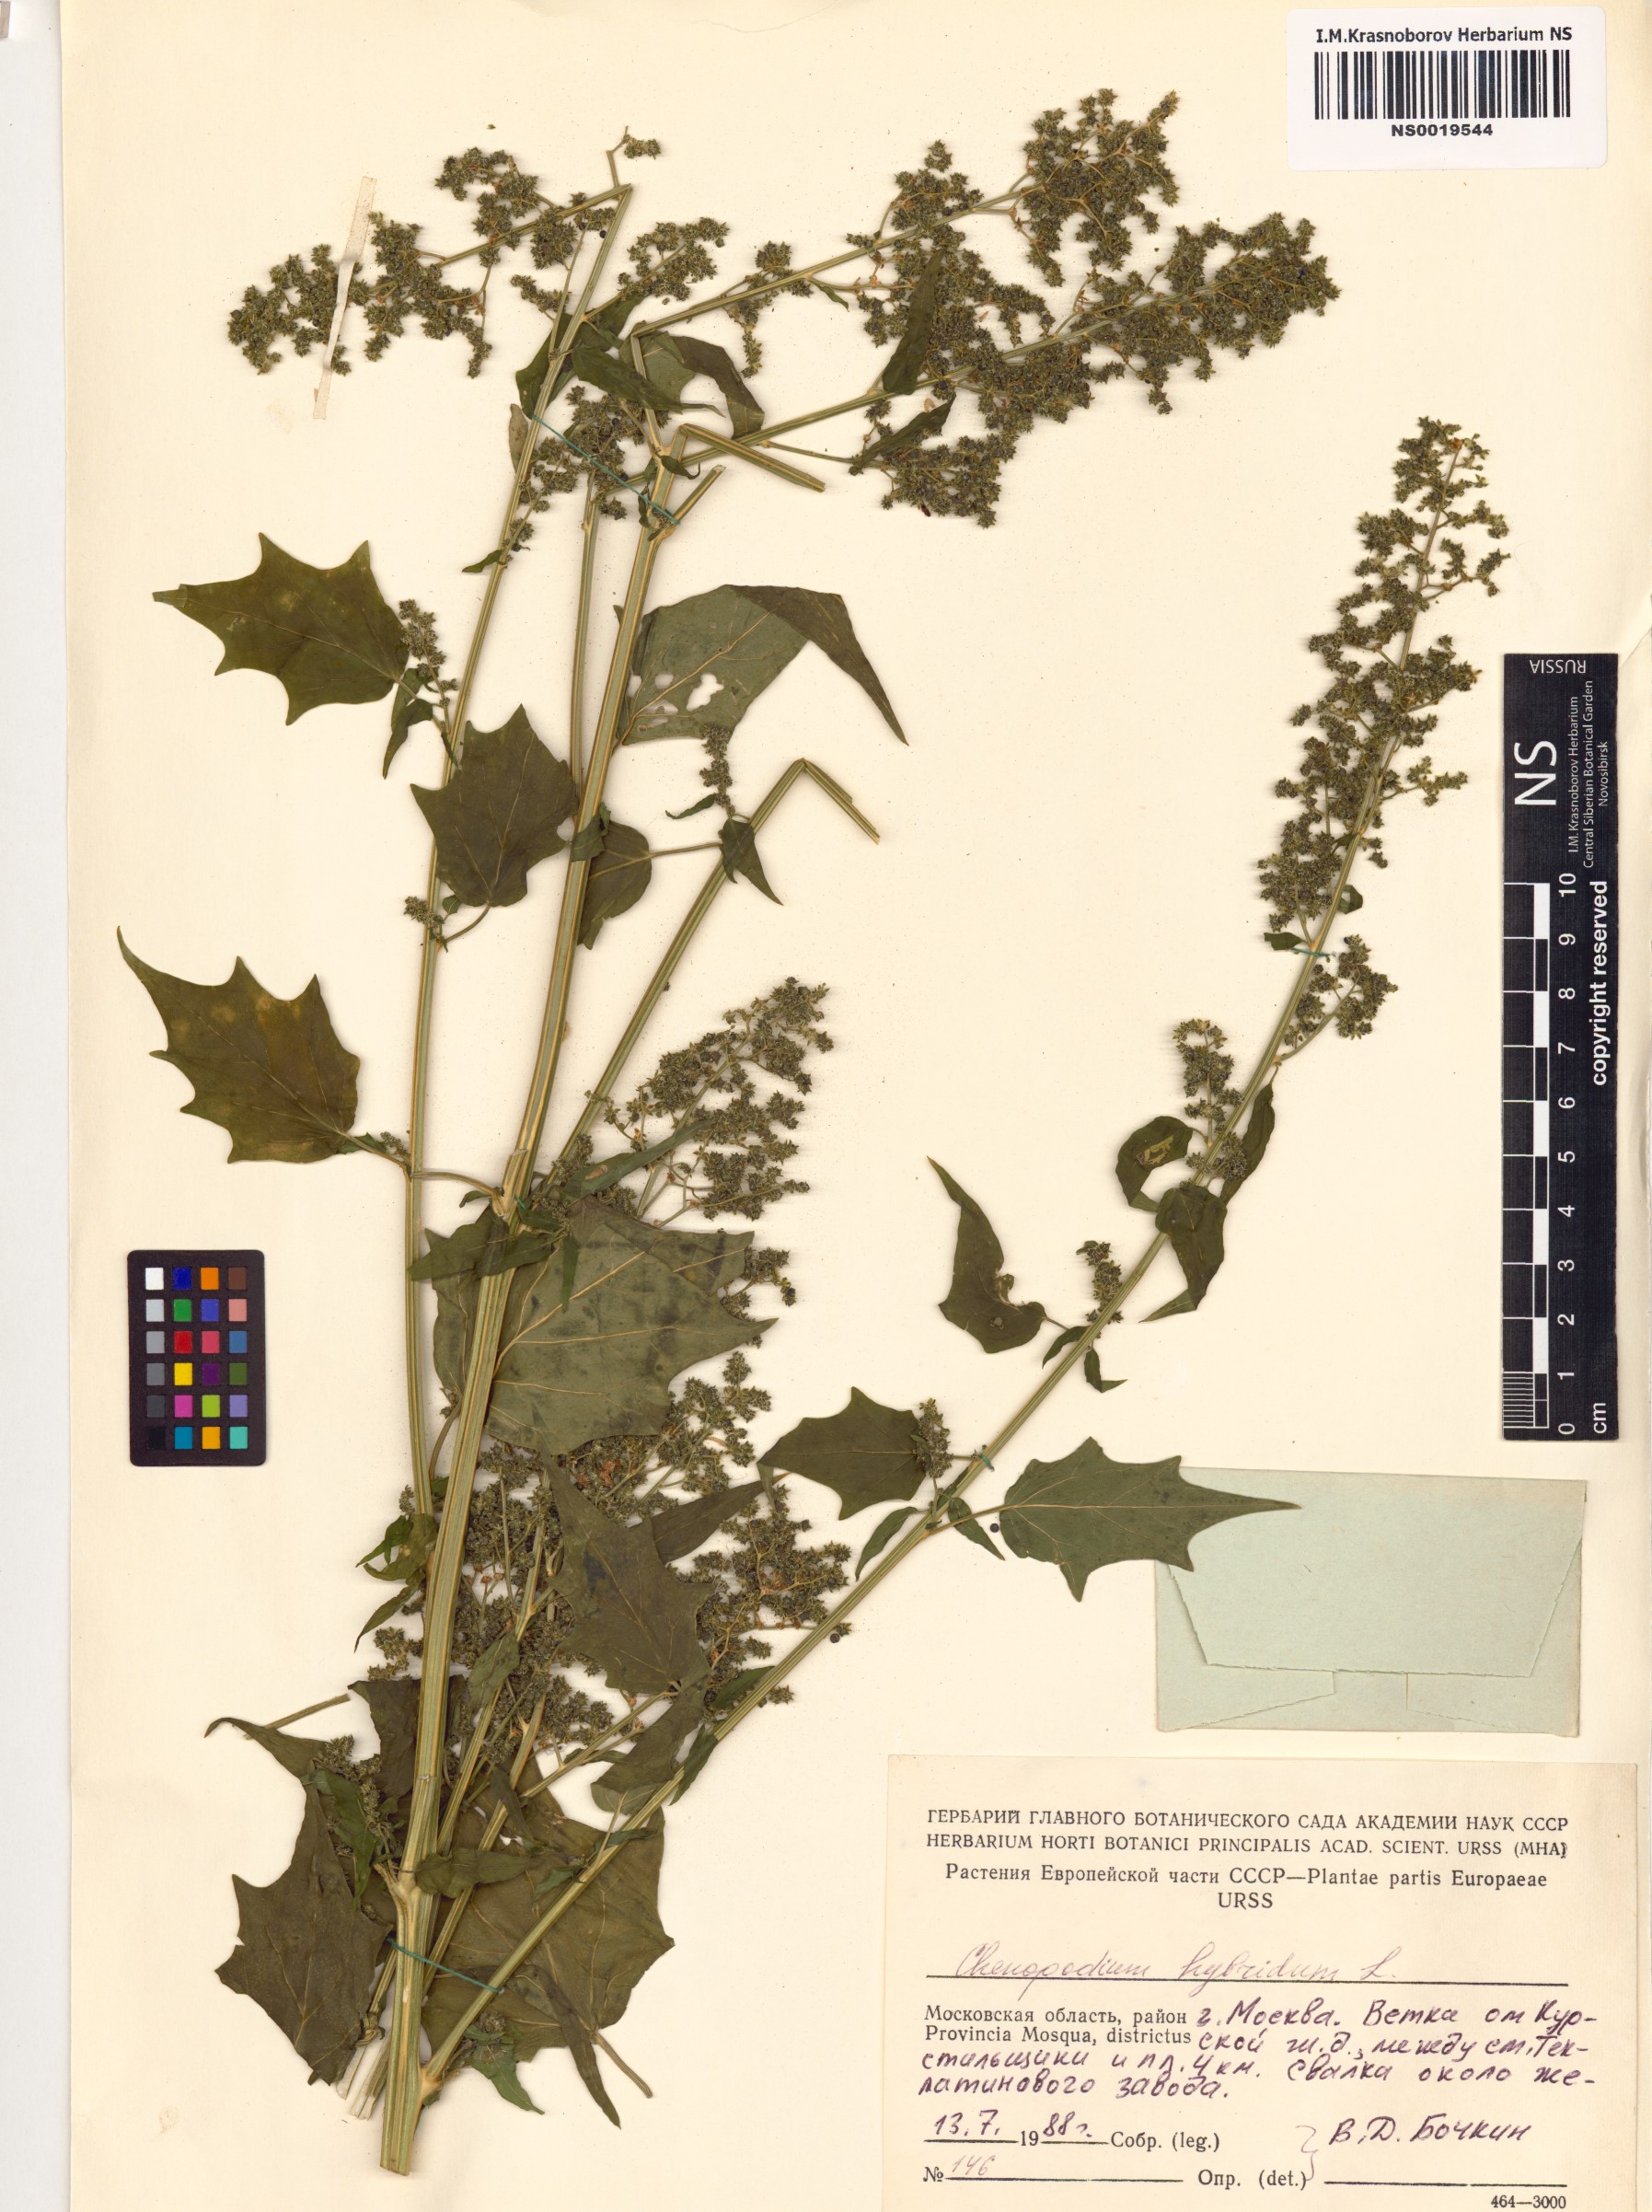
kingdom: Plantae
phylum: Tracheophyta
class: Magnoliopsida
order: Caryophyllales
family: Amaranthaceae
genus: Chenopodiastrum
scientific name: Chenopodiastrum hybridum
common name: Mapleleaf goosefoot
